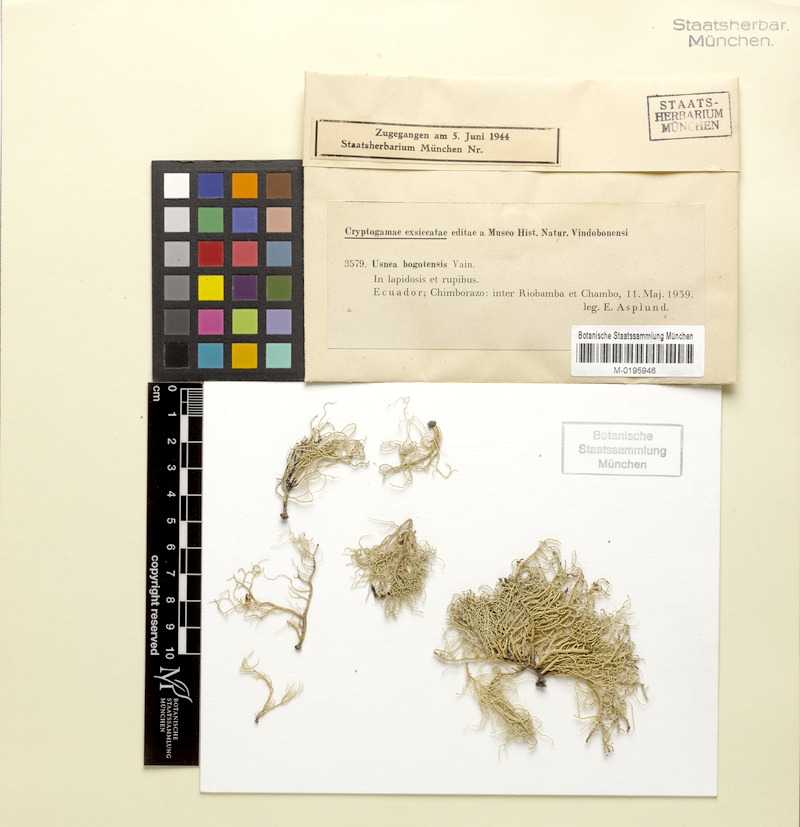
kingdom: Fungi
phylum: Ascomycota
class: Lecanoromycetes
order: Lecanorales
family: Parmeliaceae
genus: Usnea
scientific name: Usnea bogotensis
